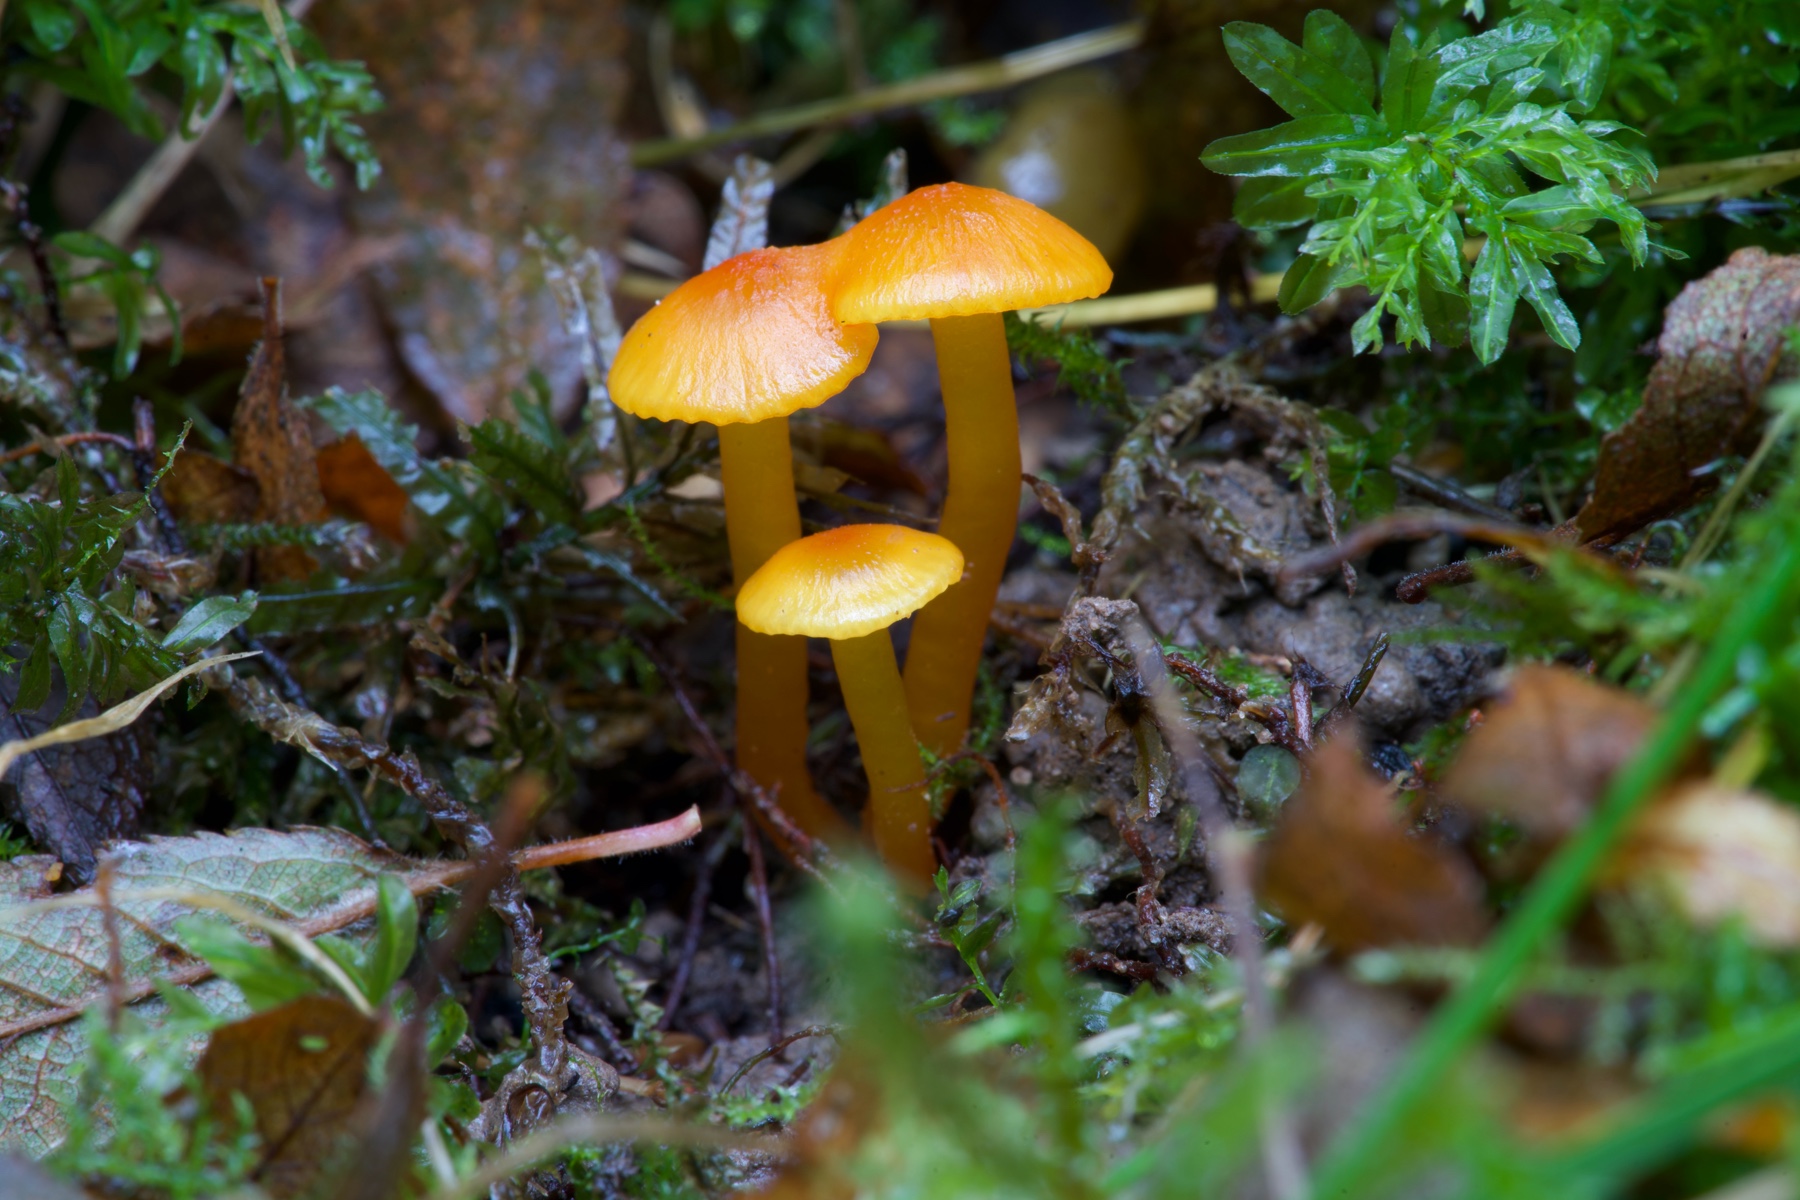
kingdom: Fungi
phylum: Basidiomycota
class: Agaricomycetes
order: Agaricales
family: Hygrophoraceae
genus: Hygrocybe
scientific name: Hygrocybe insipida
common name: liden vokshat
